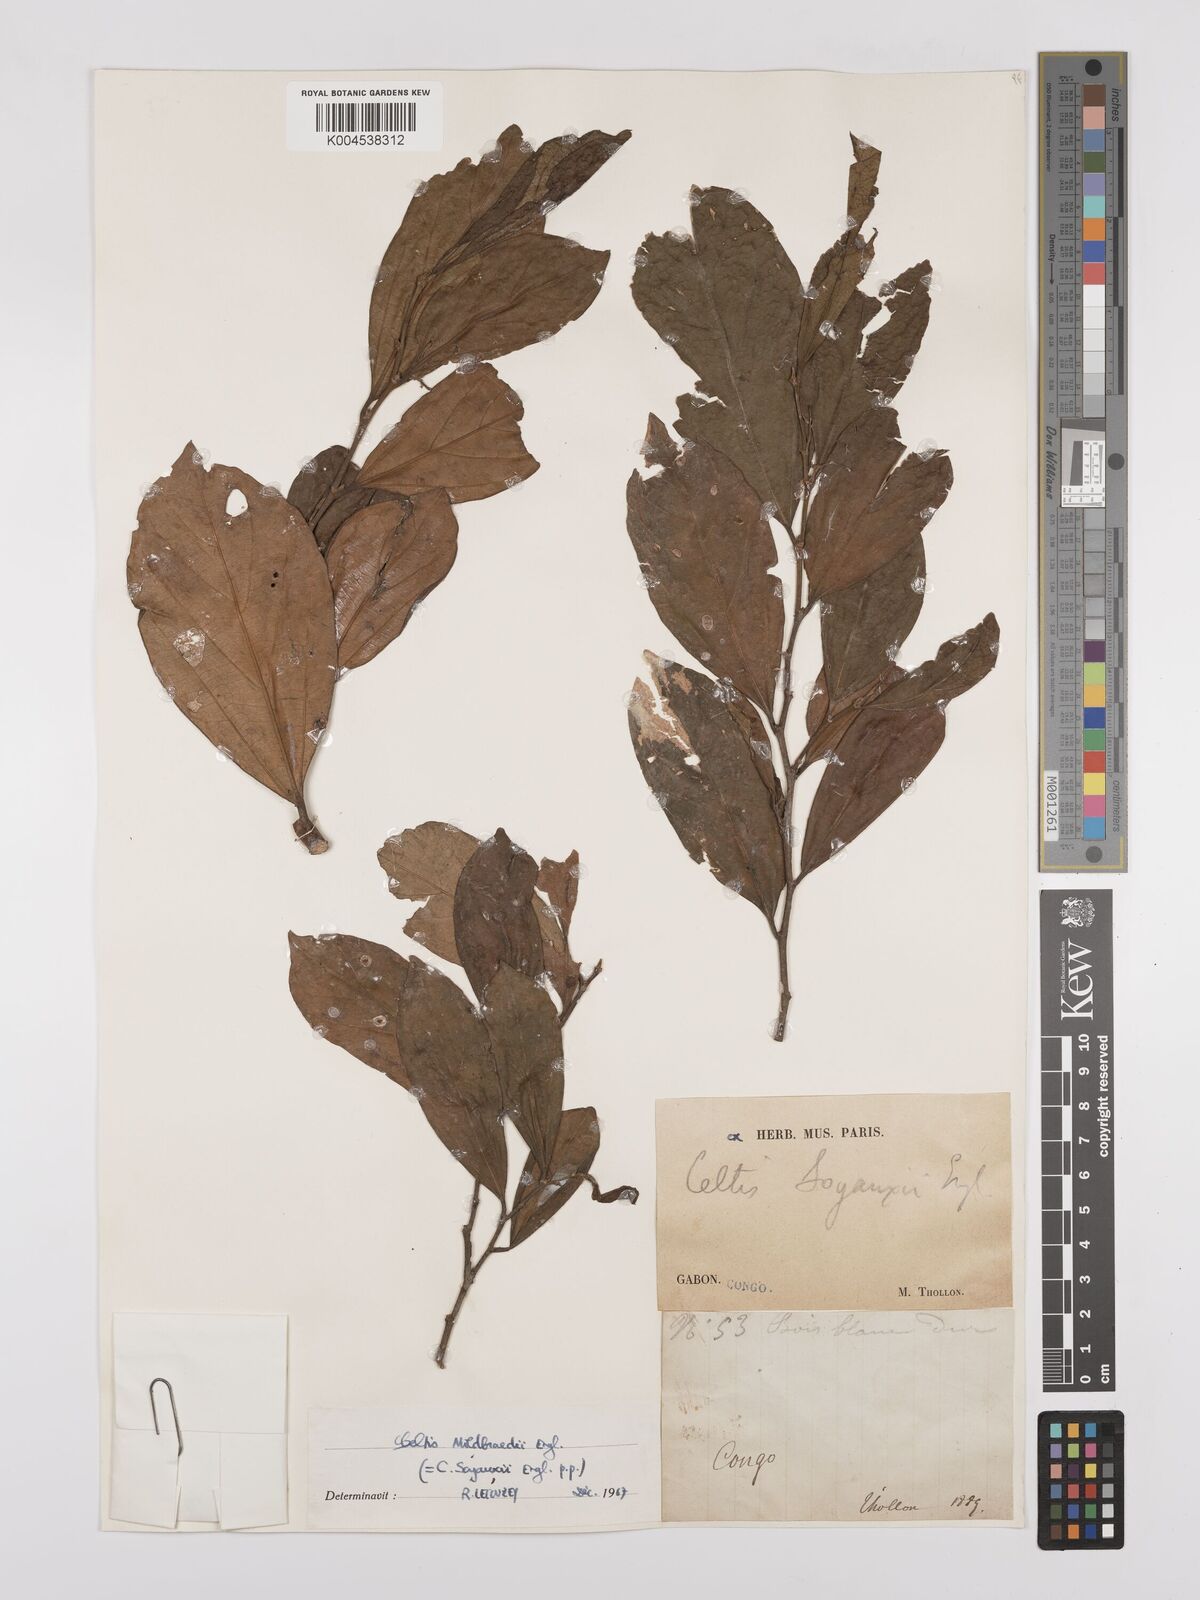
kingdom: Plantae
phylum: Tracheophyta
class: Magnoliopsida
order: Rosales
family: Cannabaceae
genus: Celtis
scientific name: Celtis mildbraedii
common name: Red-fruited stinkwood
